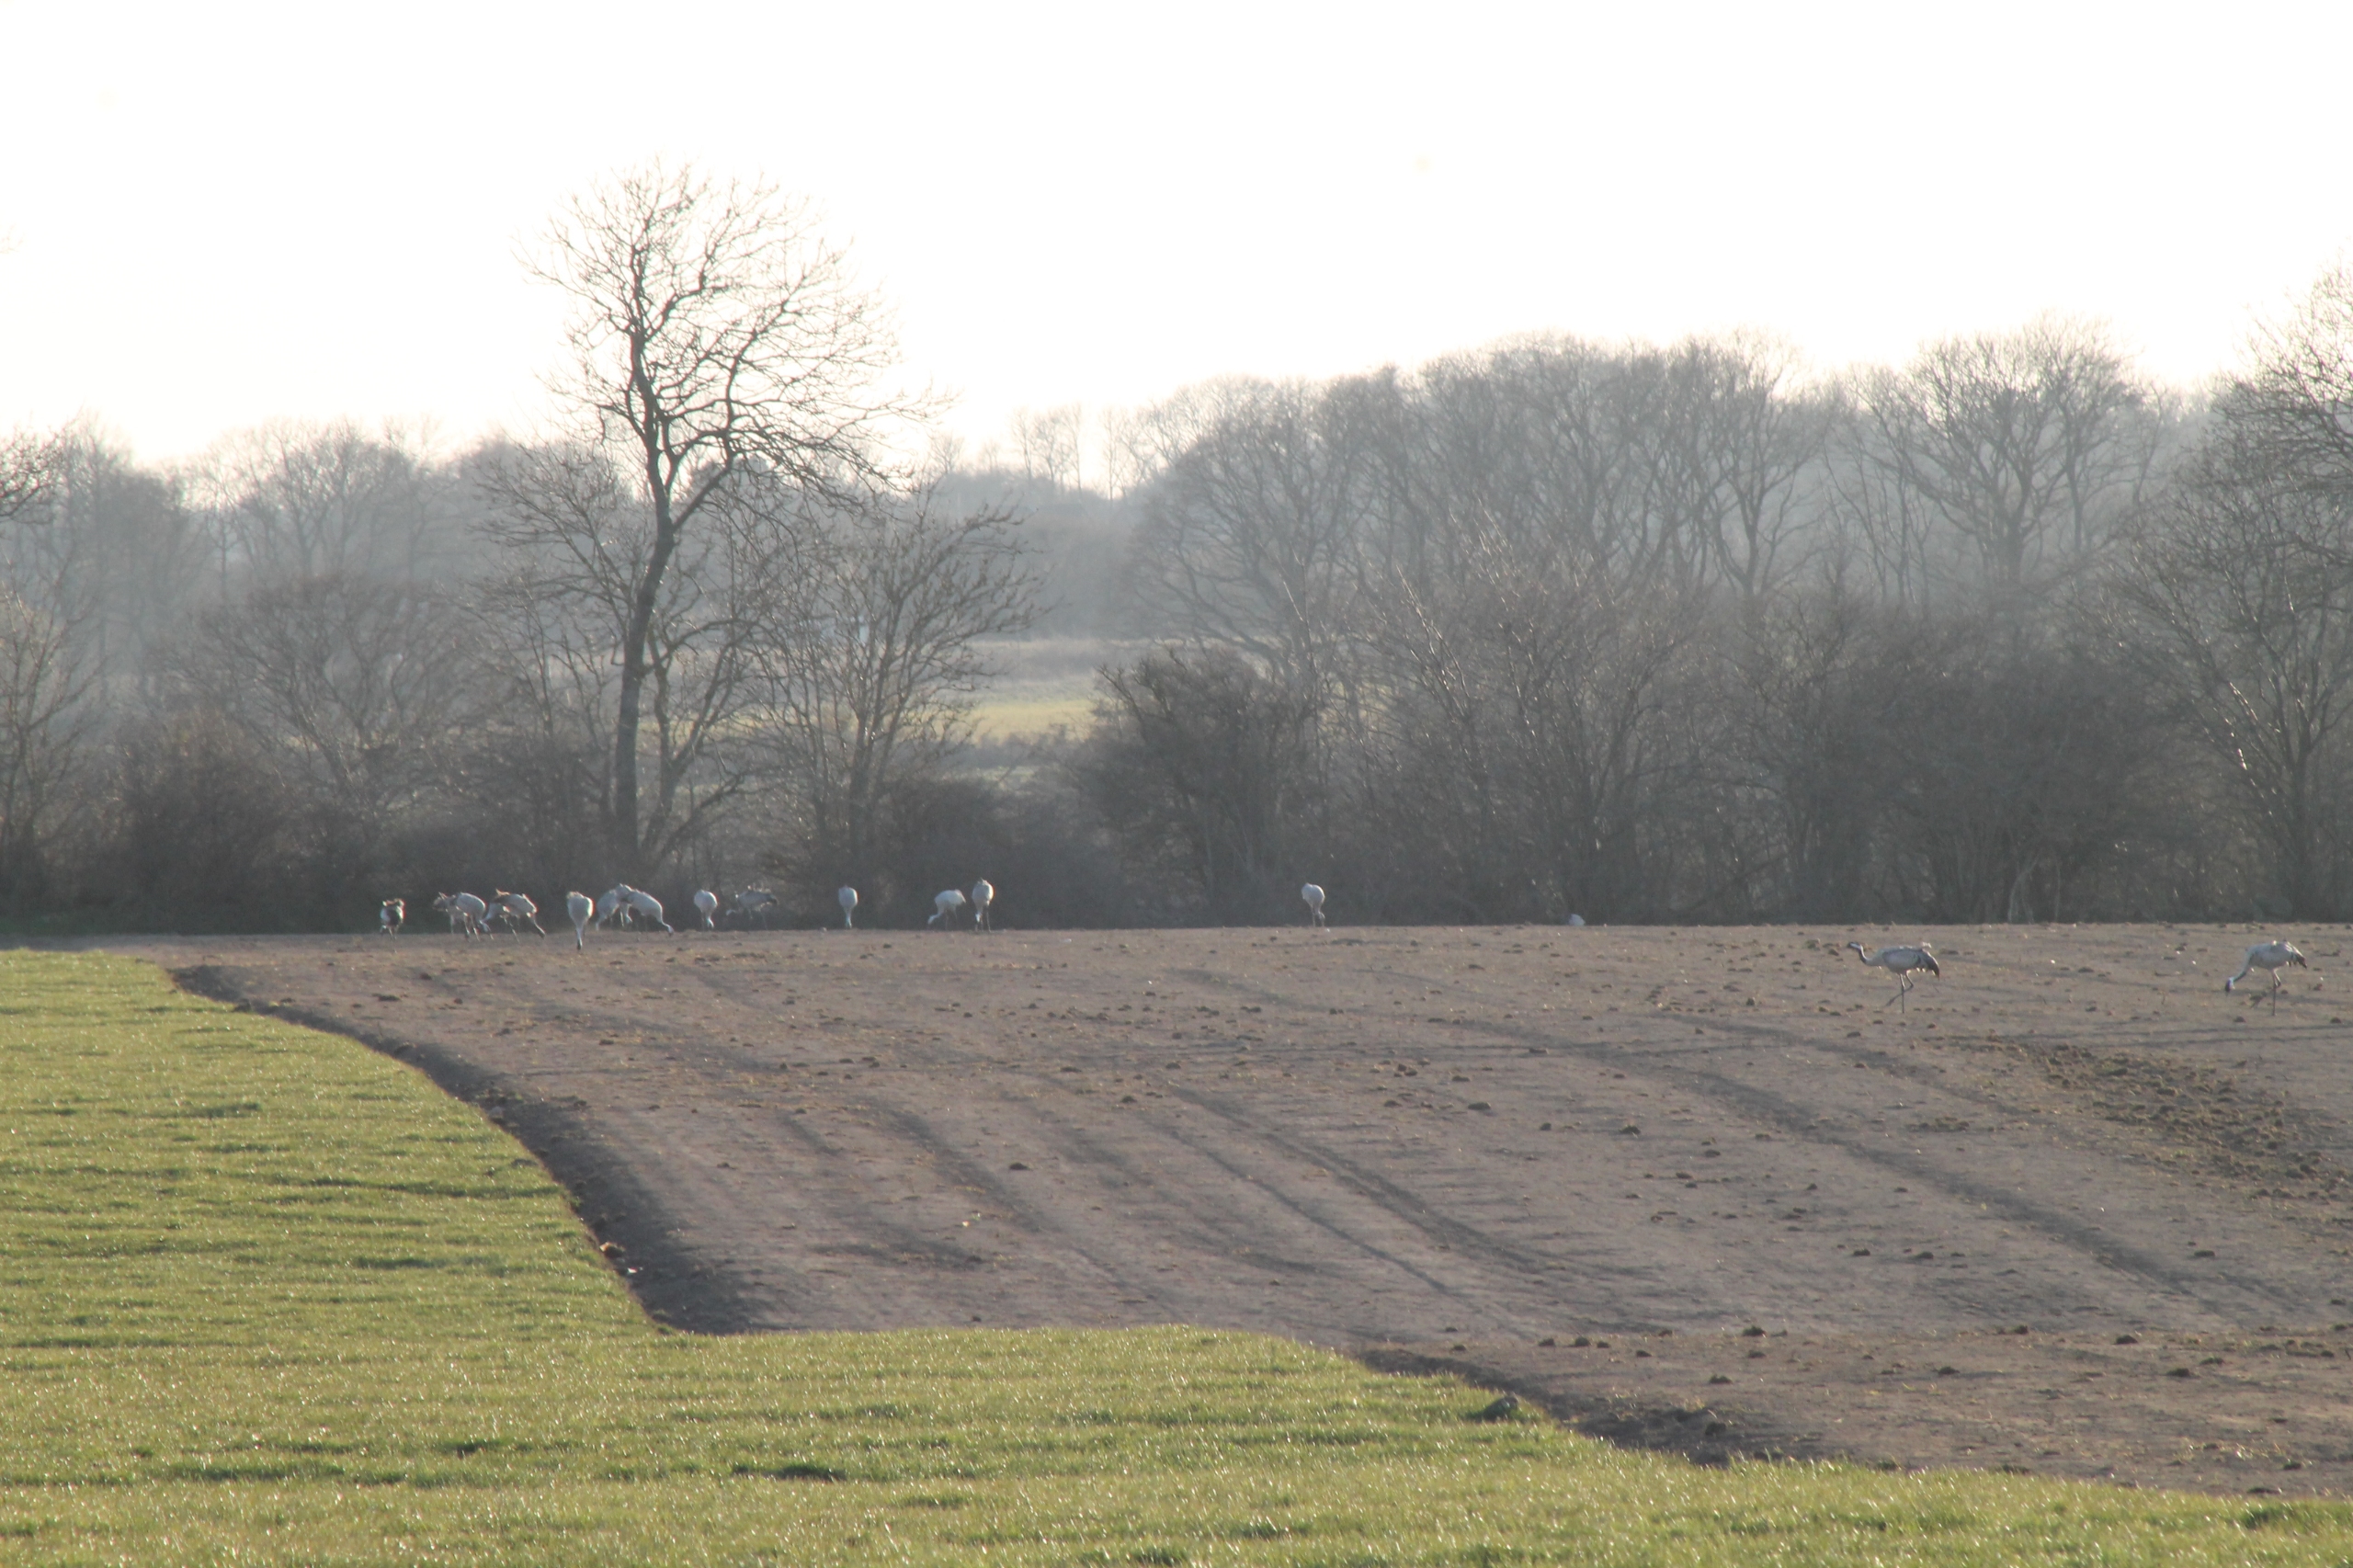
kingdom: Animalia
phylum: Chordata
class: Aves
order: Gruiformes
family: Gruidae
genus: Grus
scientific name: Grus grus
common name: Trane
